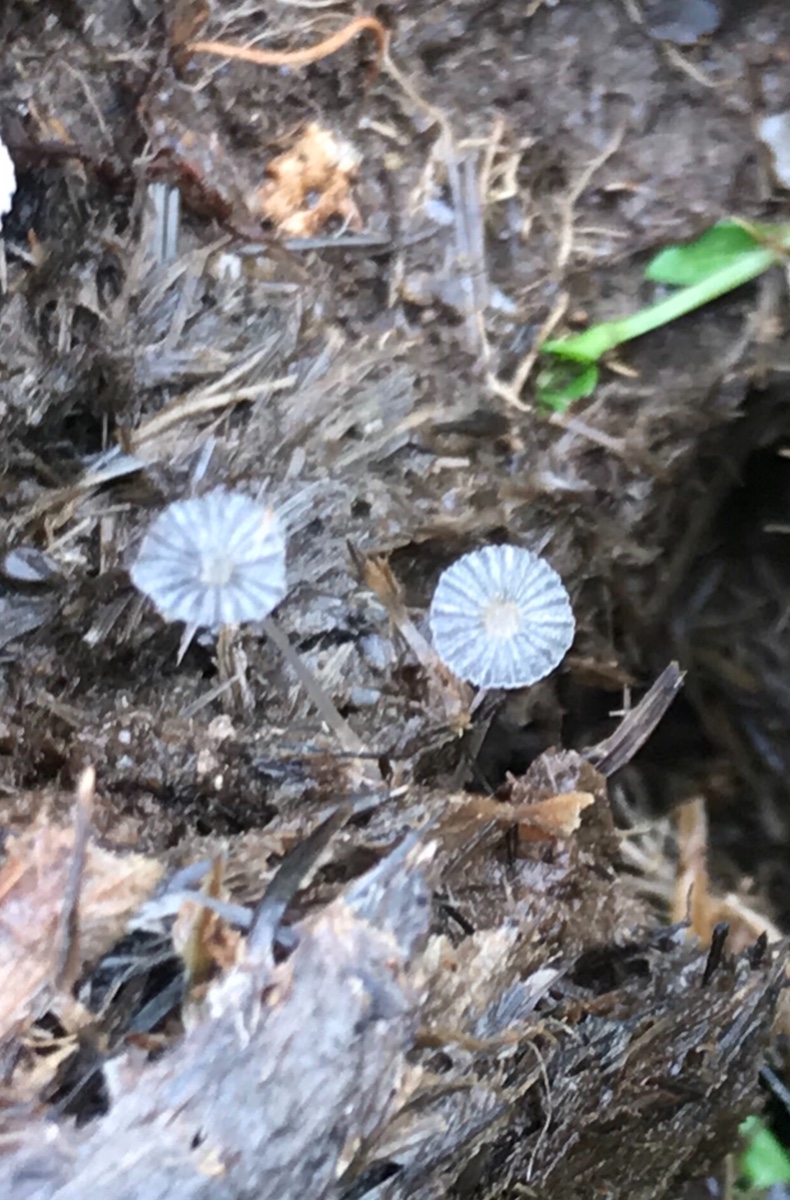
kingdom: Fungi
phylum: Basidiomycota
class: Agaricomycetes
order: Agaricales
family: Psathyrellaceae
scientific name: Psathyrellaceae
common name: mørkhatfamilien
